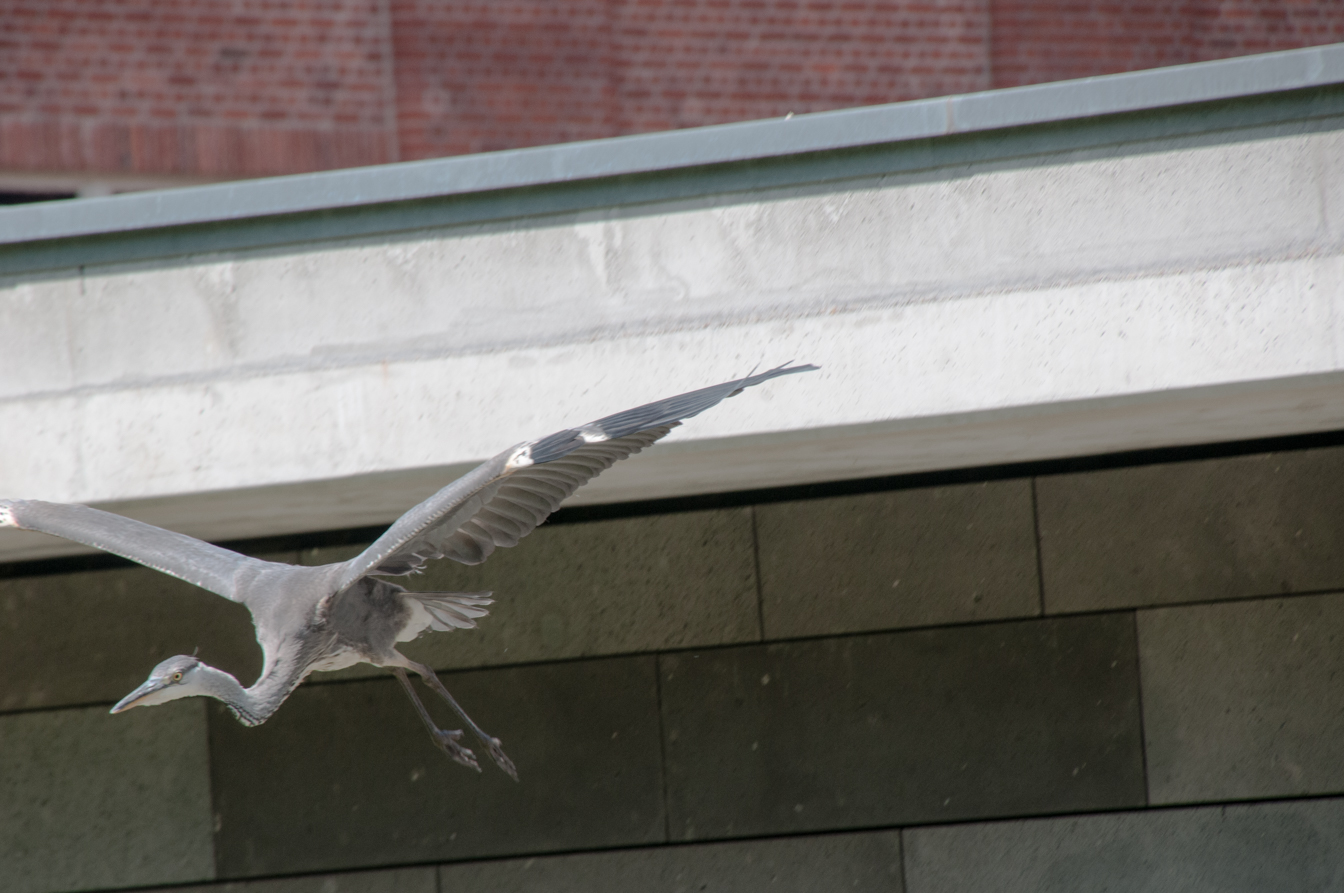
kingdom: Animalia
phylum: Chordata
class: Aves
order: Pelecaniformes
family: Ardeidae
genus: Ardea
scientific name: Ardea cinerea
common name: Grey heron
